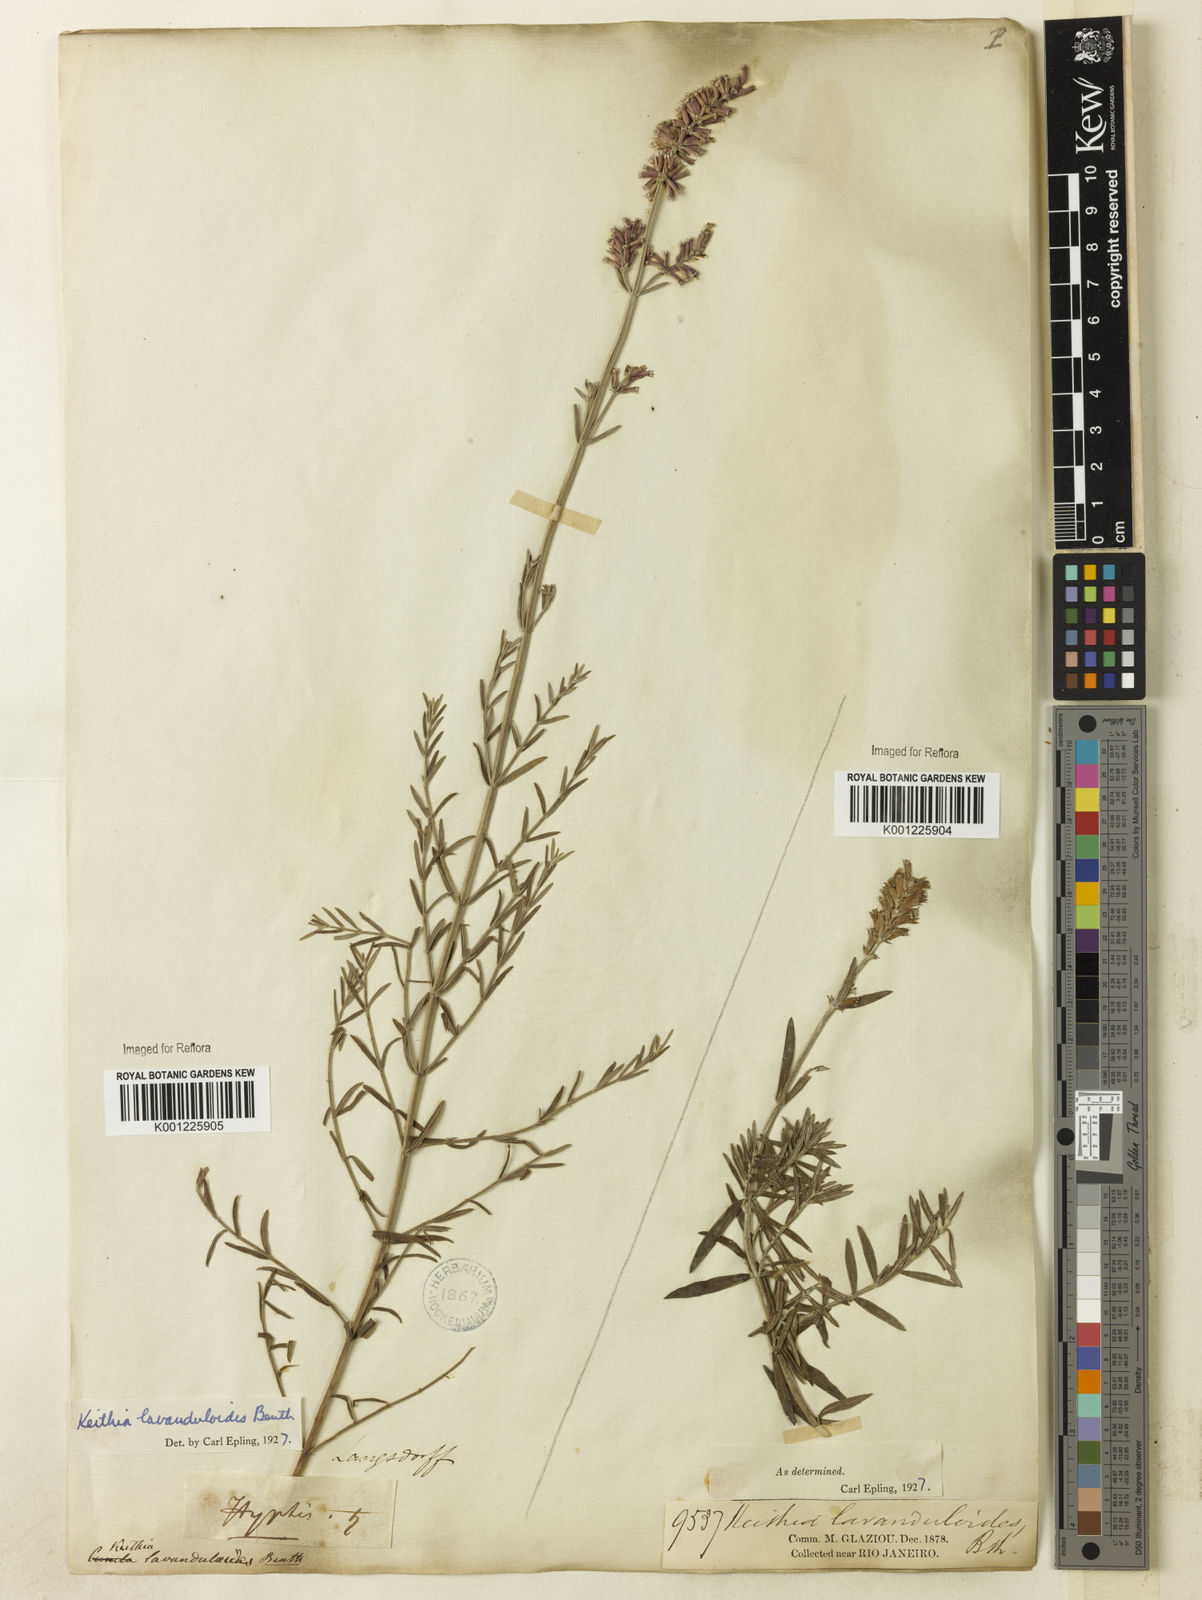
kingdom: Plantae
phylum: Tracheophyta
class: Magnoliopsida
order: Lamiales
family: Lamiaceae
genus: Rhabdocaulon
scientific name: Rhabdocaulon lavanduloides
